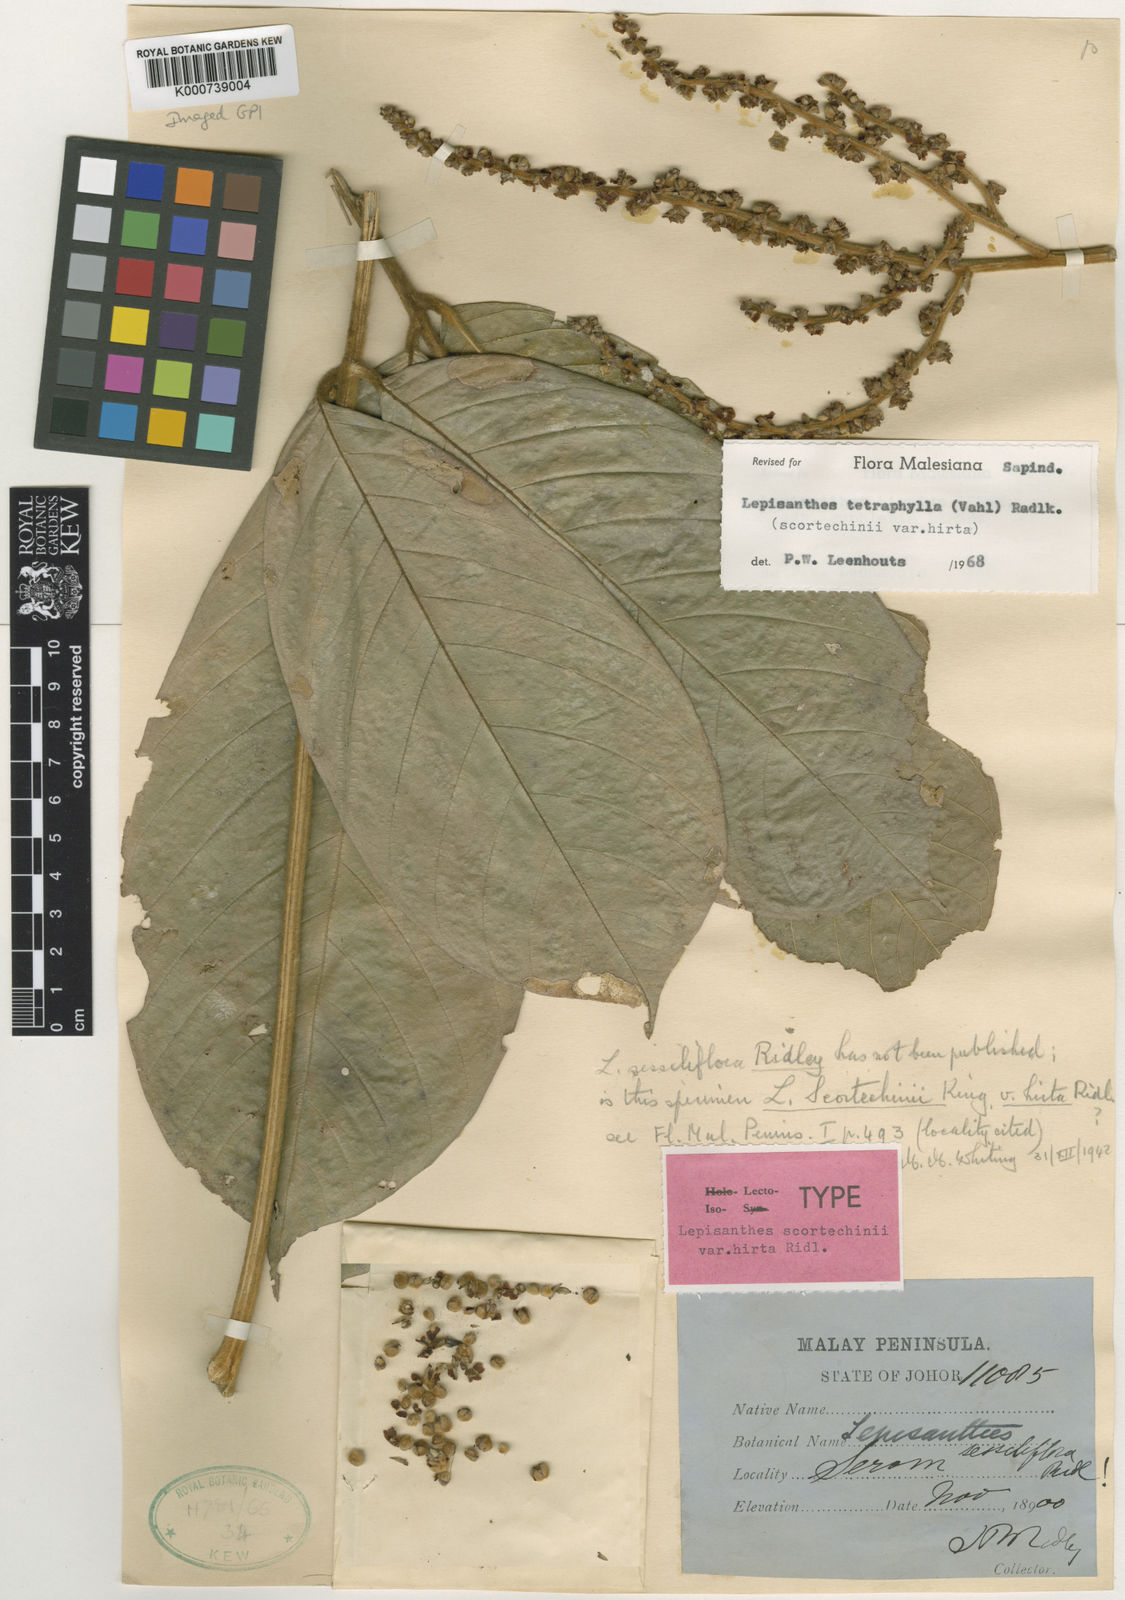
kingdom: Plantae
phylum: Tracheophyta
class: Magnoliopsida
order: Sapindales
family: Sapindaceae
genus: Lepisanthes
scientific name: Lepisanthes tetraphylla
